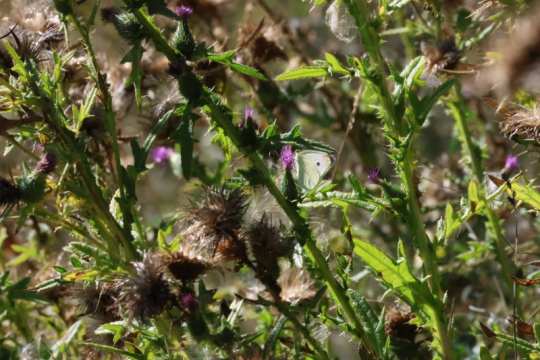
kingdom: Animalia
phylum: Arthropoda
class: Insecta
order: Lepidoptera
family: Pieridae
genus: Pieris
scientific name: Pieris rapae
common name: Cabbage White
